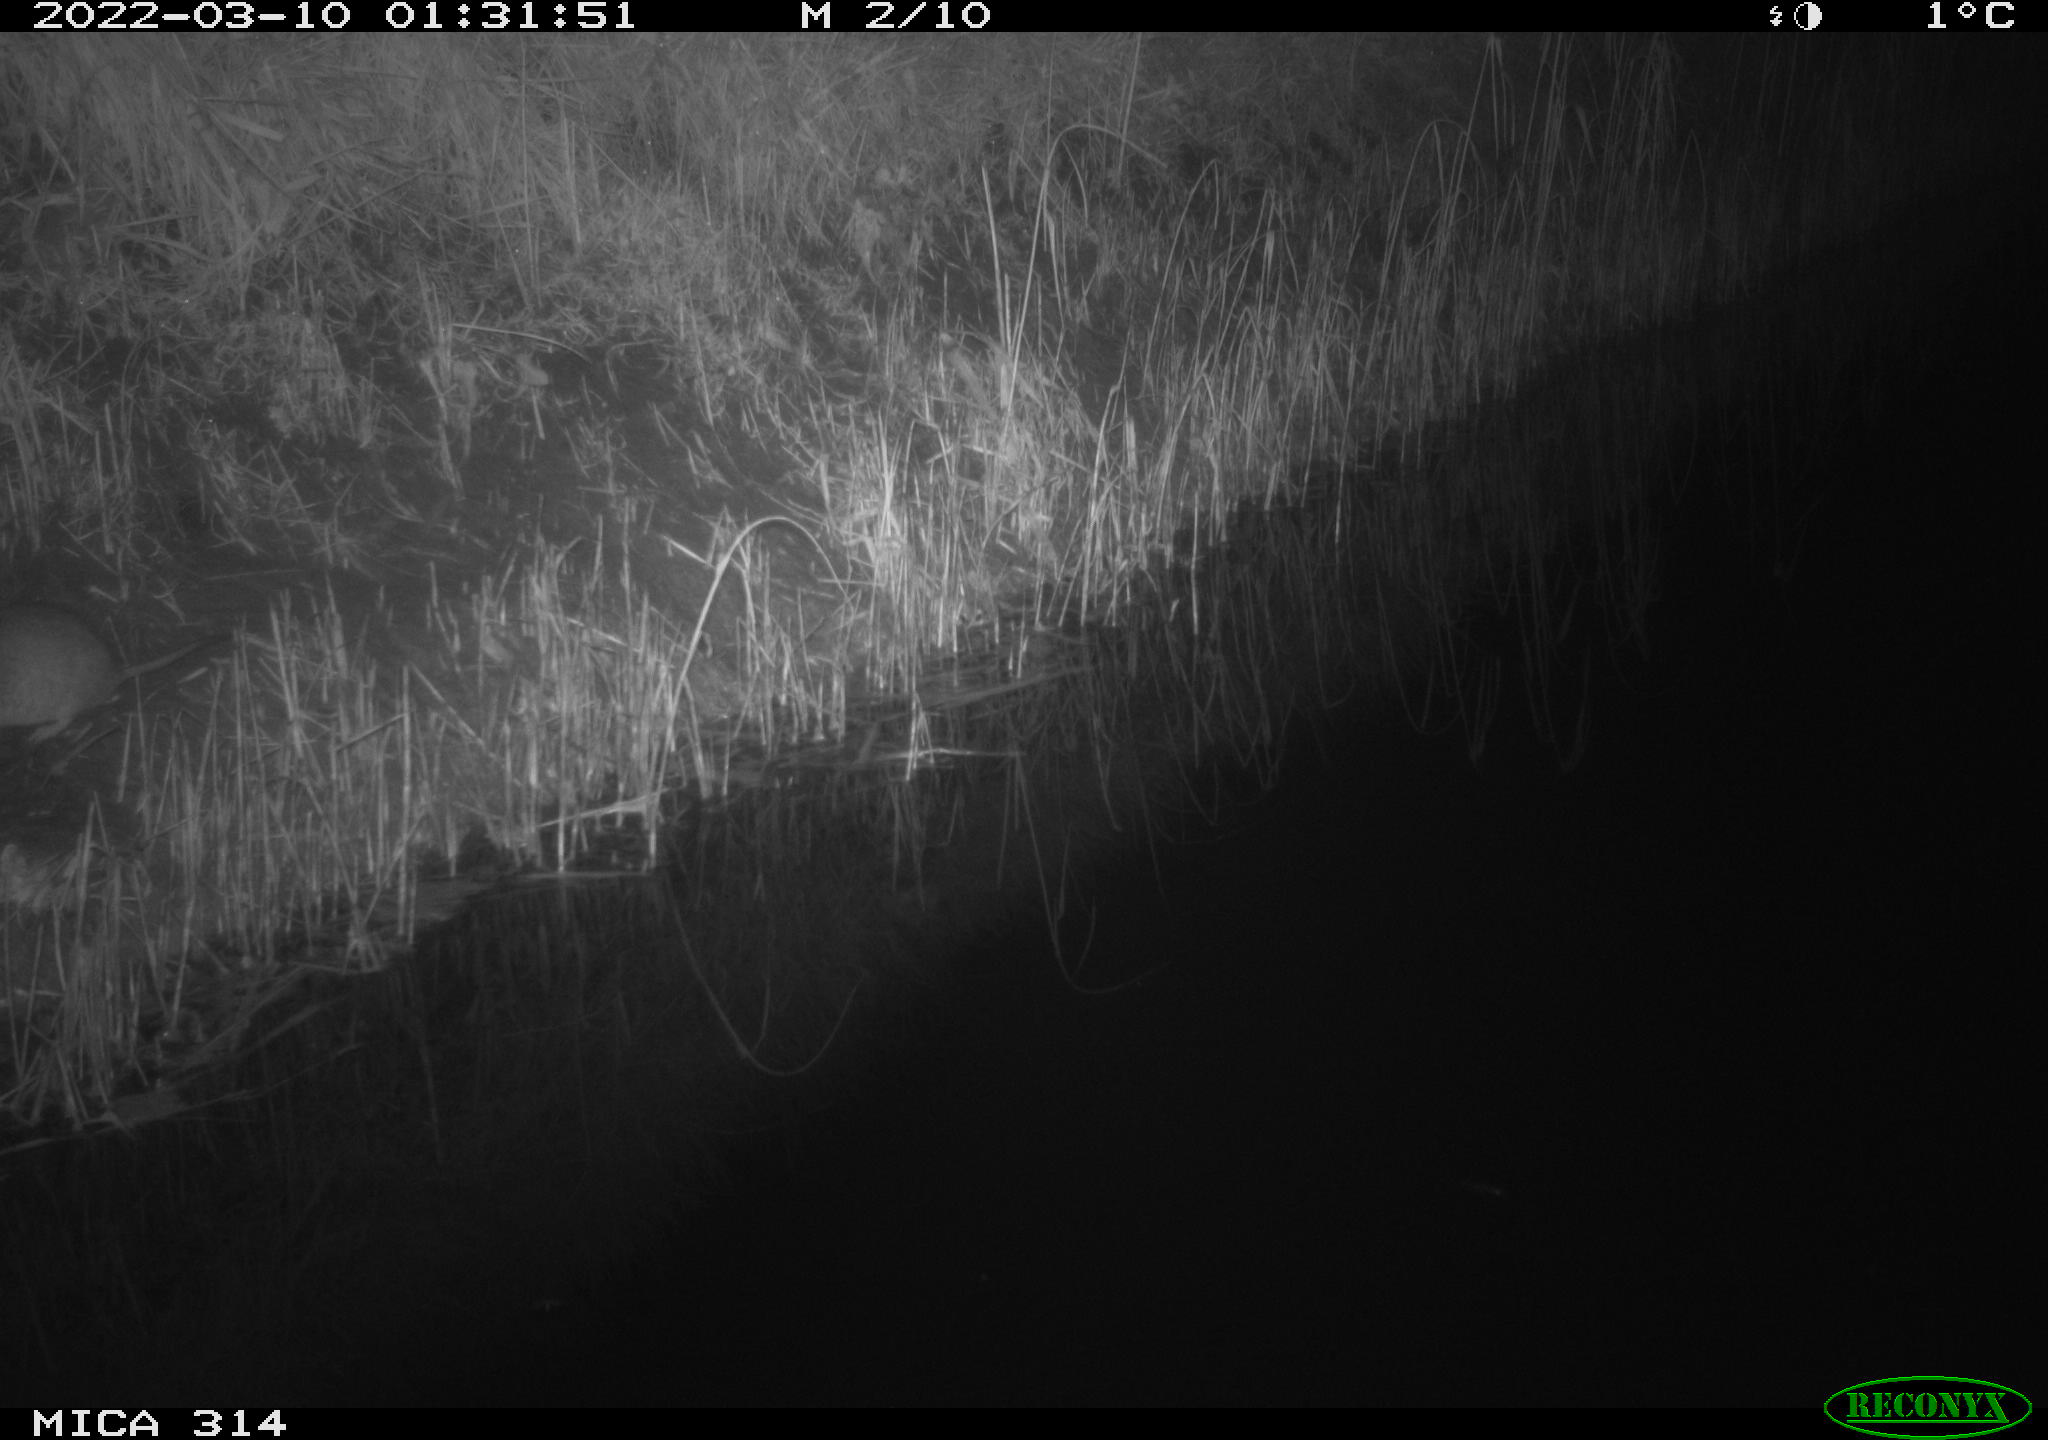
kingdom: Animalia
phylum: Chordata
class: Mammalia
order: Rodentia
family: Muridae
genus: Rattus
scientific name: Rattus norvegicus
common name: Brown rat
